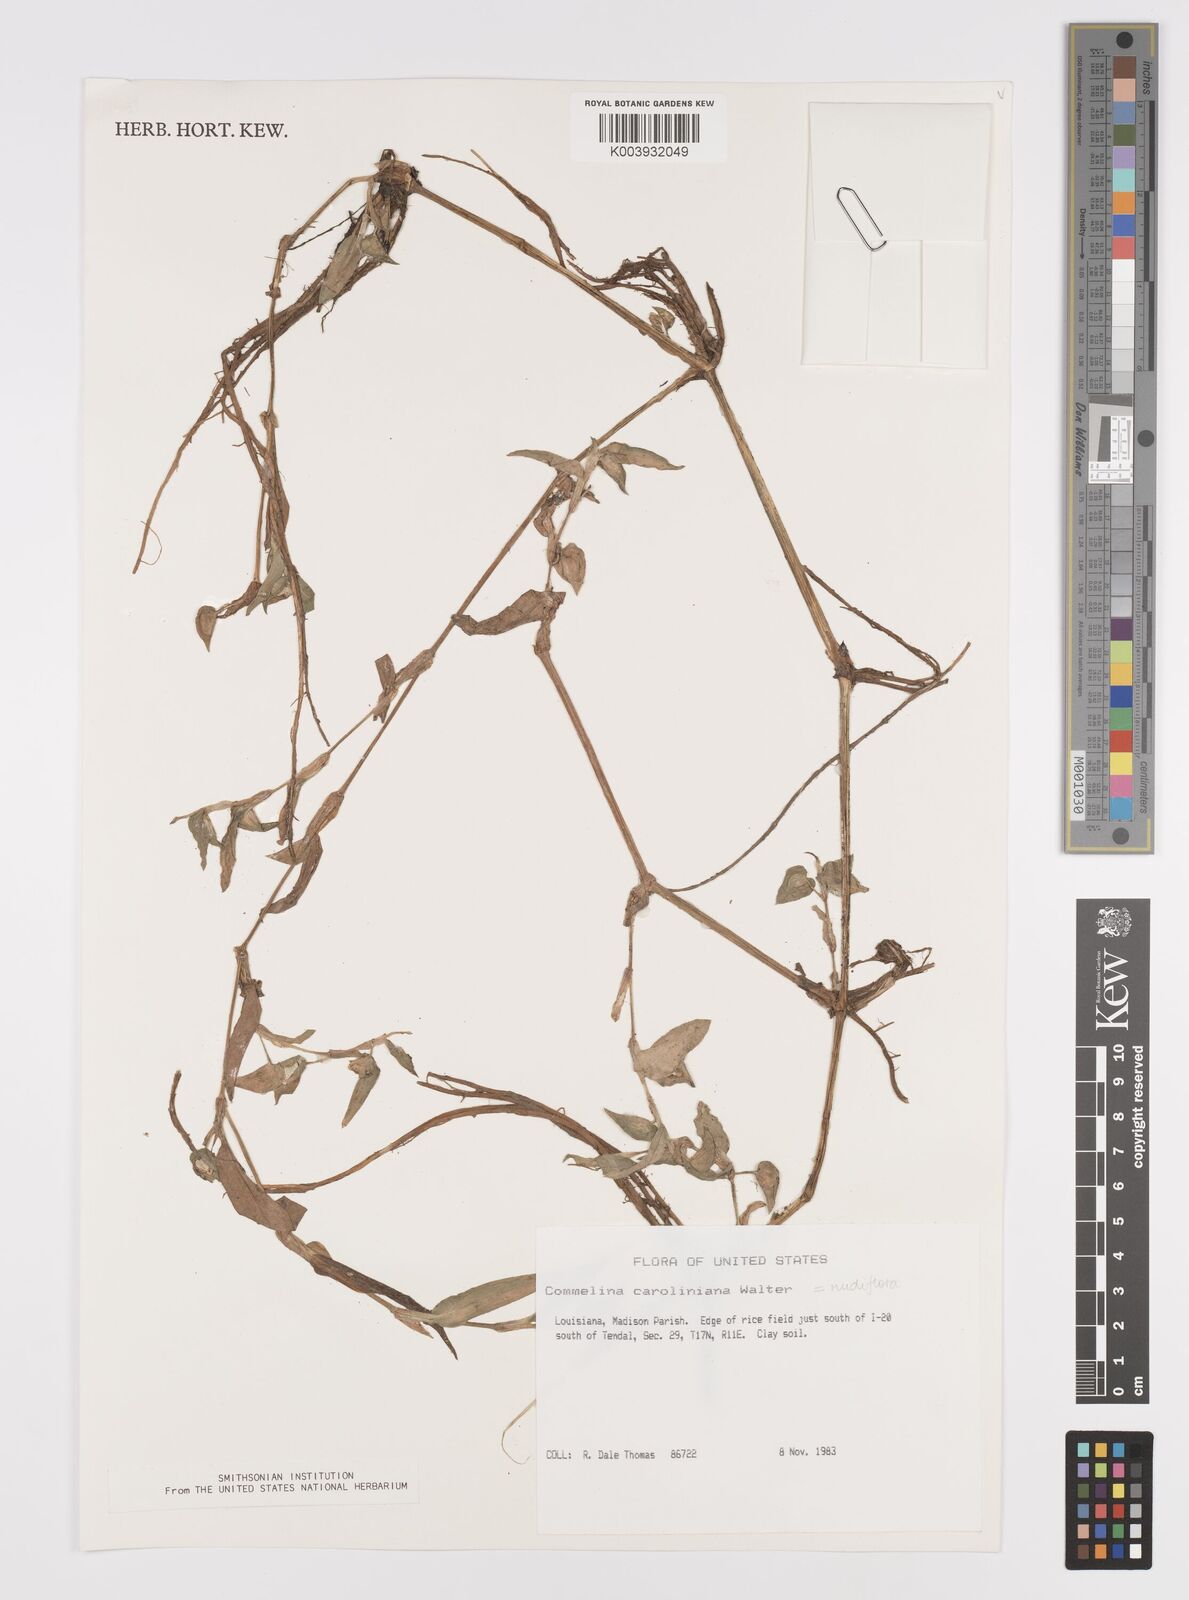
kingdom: Plantae
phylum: Tracheophyta
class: Liliopsida
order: Commelinales
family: Commelinaceae
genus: Murdannia
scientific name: Murdannia nudiflora
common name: Nakedstem dewflower
